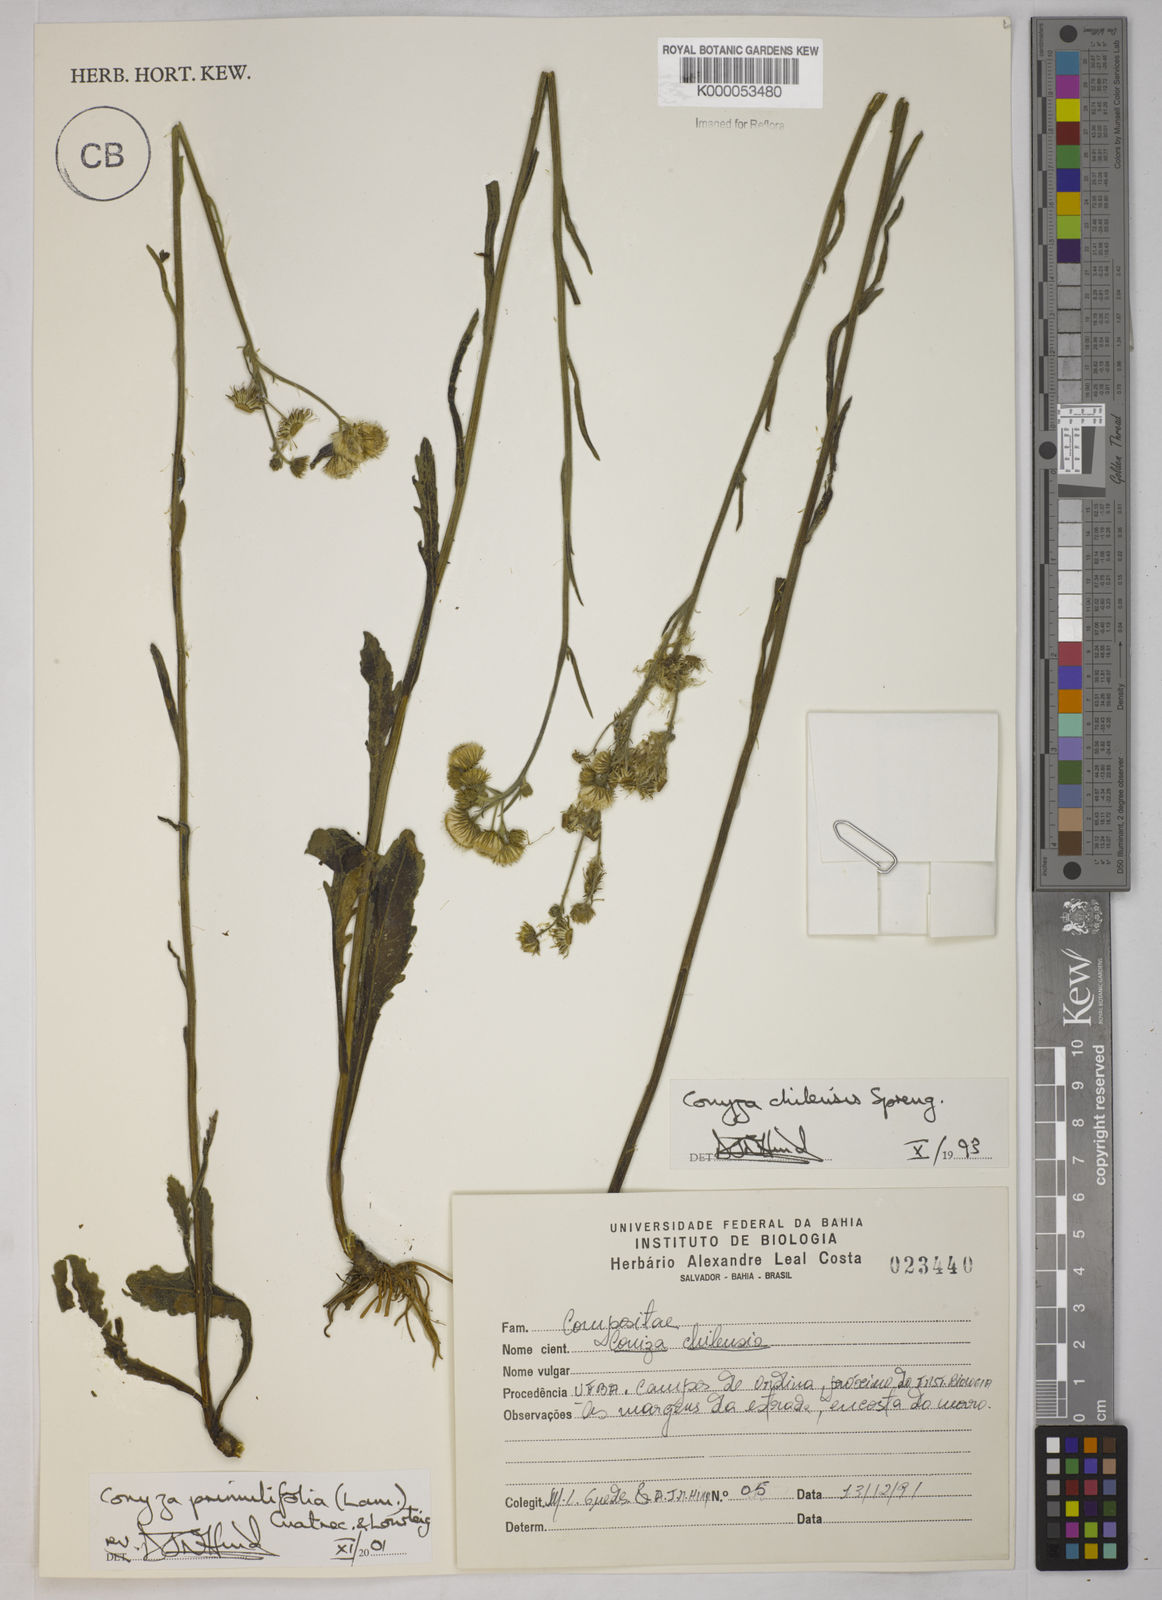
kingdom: Plantae
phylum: Tracheophyta
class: Magnoliopsida
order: Asterales
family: Asteraceae
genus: Erigeron
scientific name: Erigeron primulifolius
